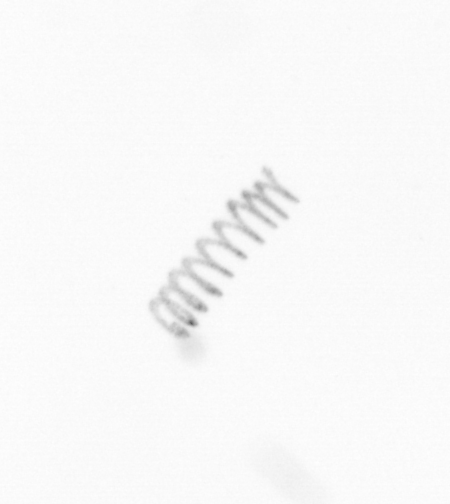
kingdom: Chromista
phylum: Ochrophyta
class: Bacillariophyceae
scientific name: Bacillariophyceae
